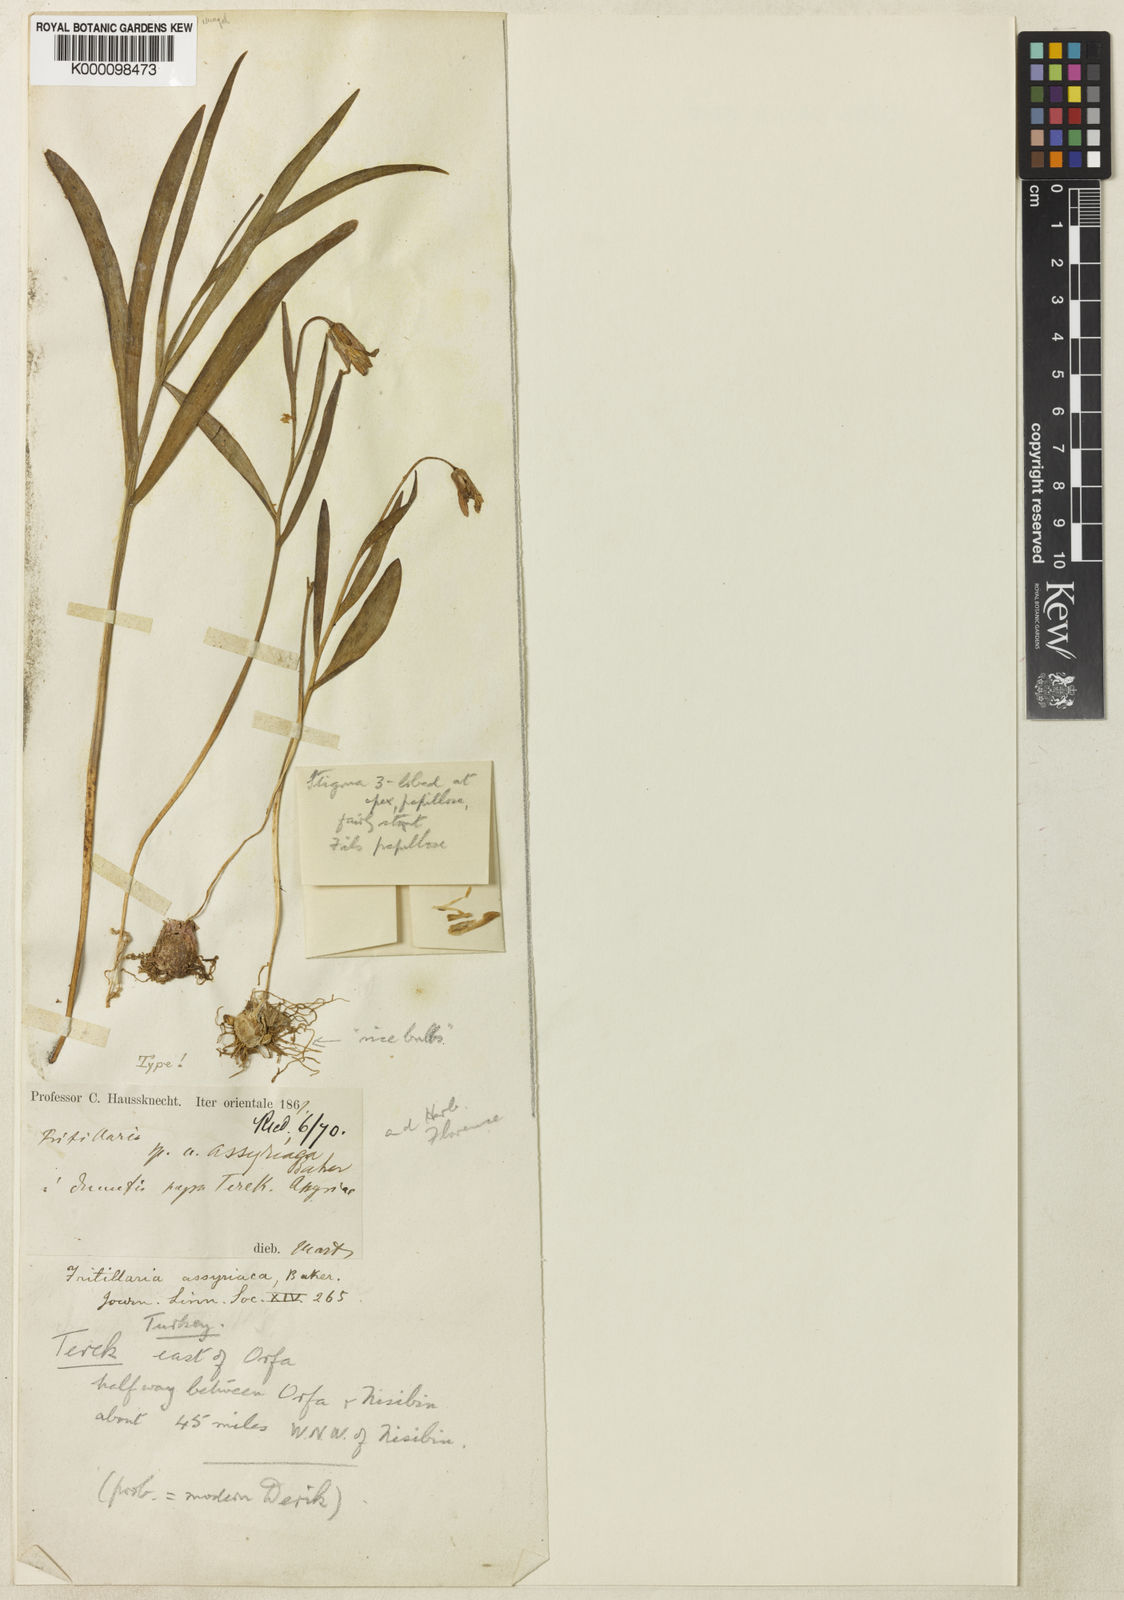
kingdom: Plantae
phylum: Tracheophyta
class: Liliopsida
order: Liliales
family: Liliaceae
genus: Fritillaria
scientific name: Fritillaria assyriaca
